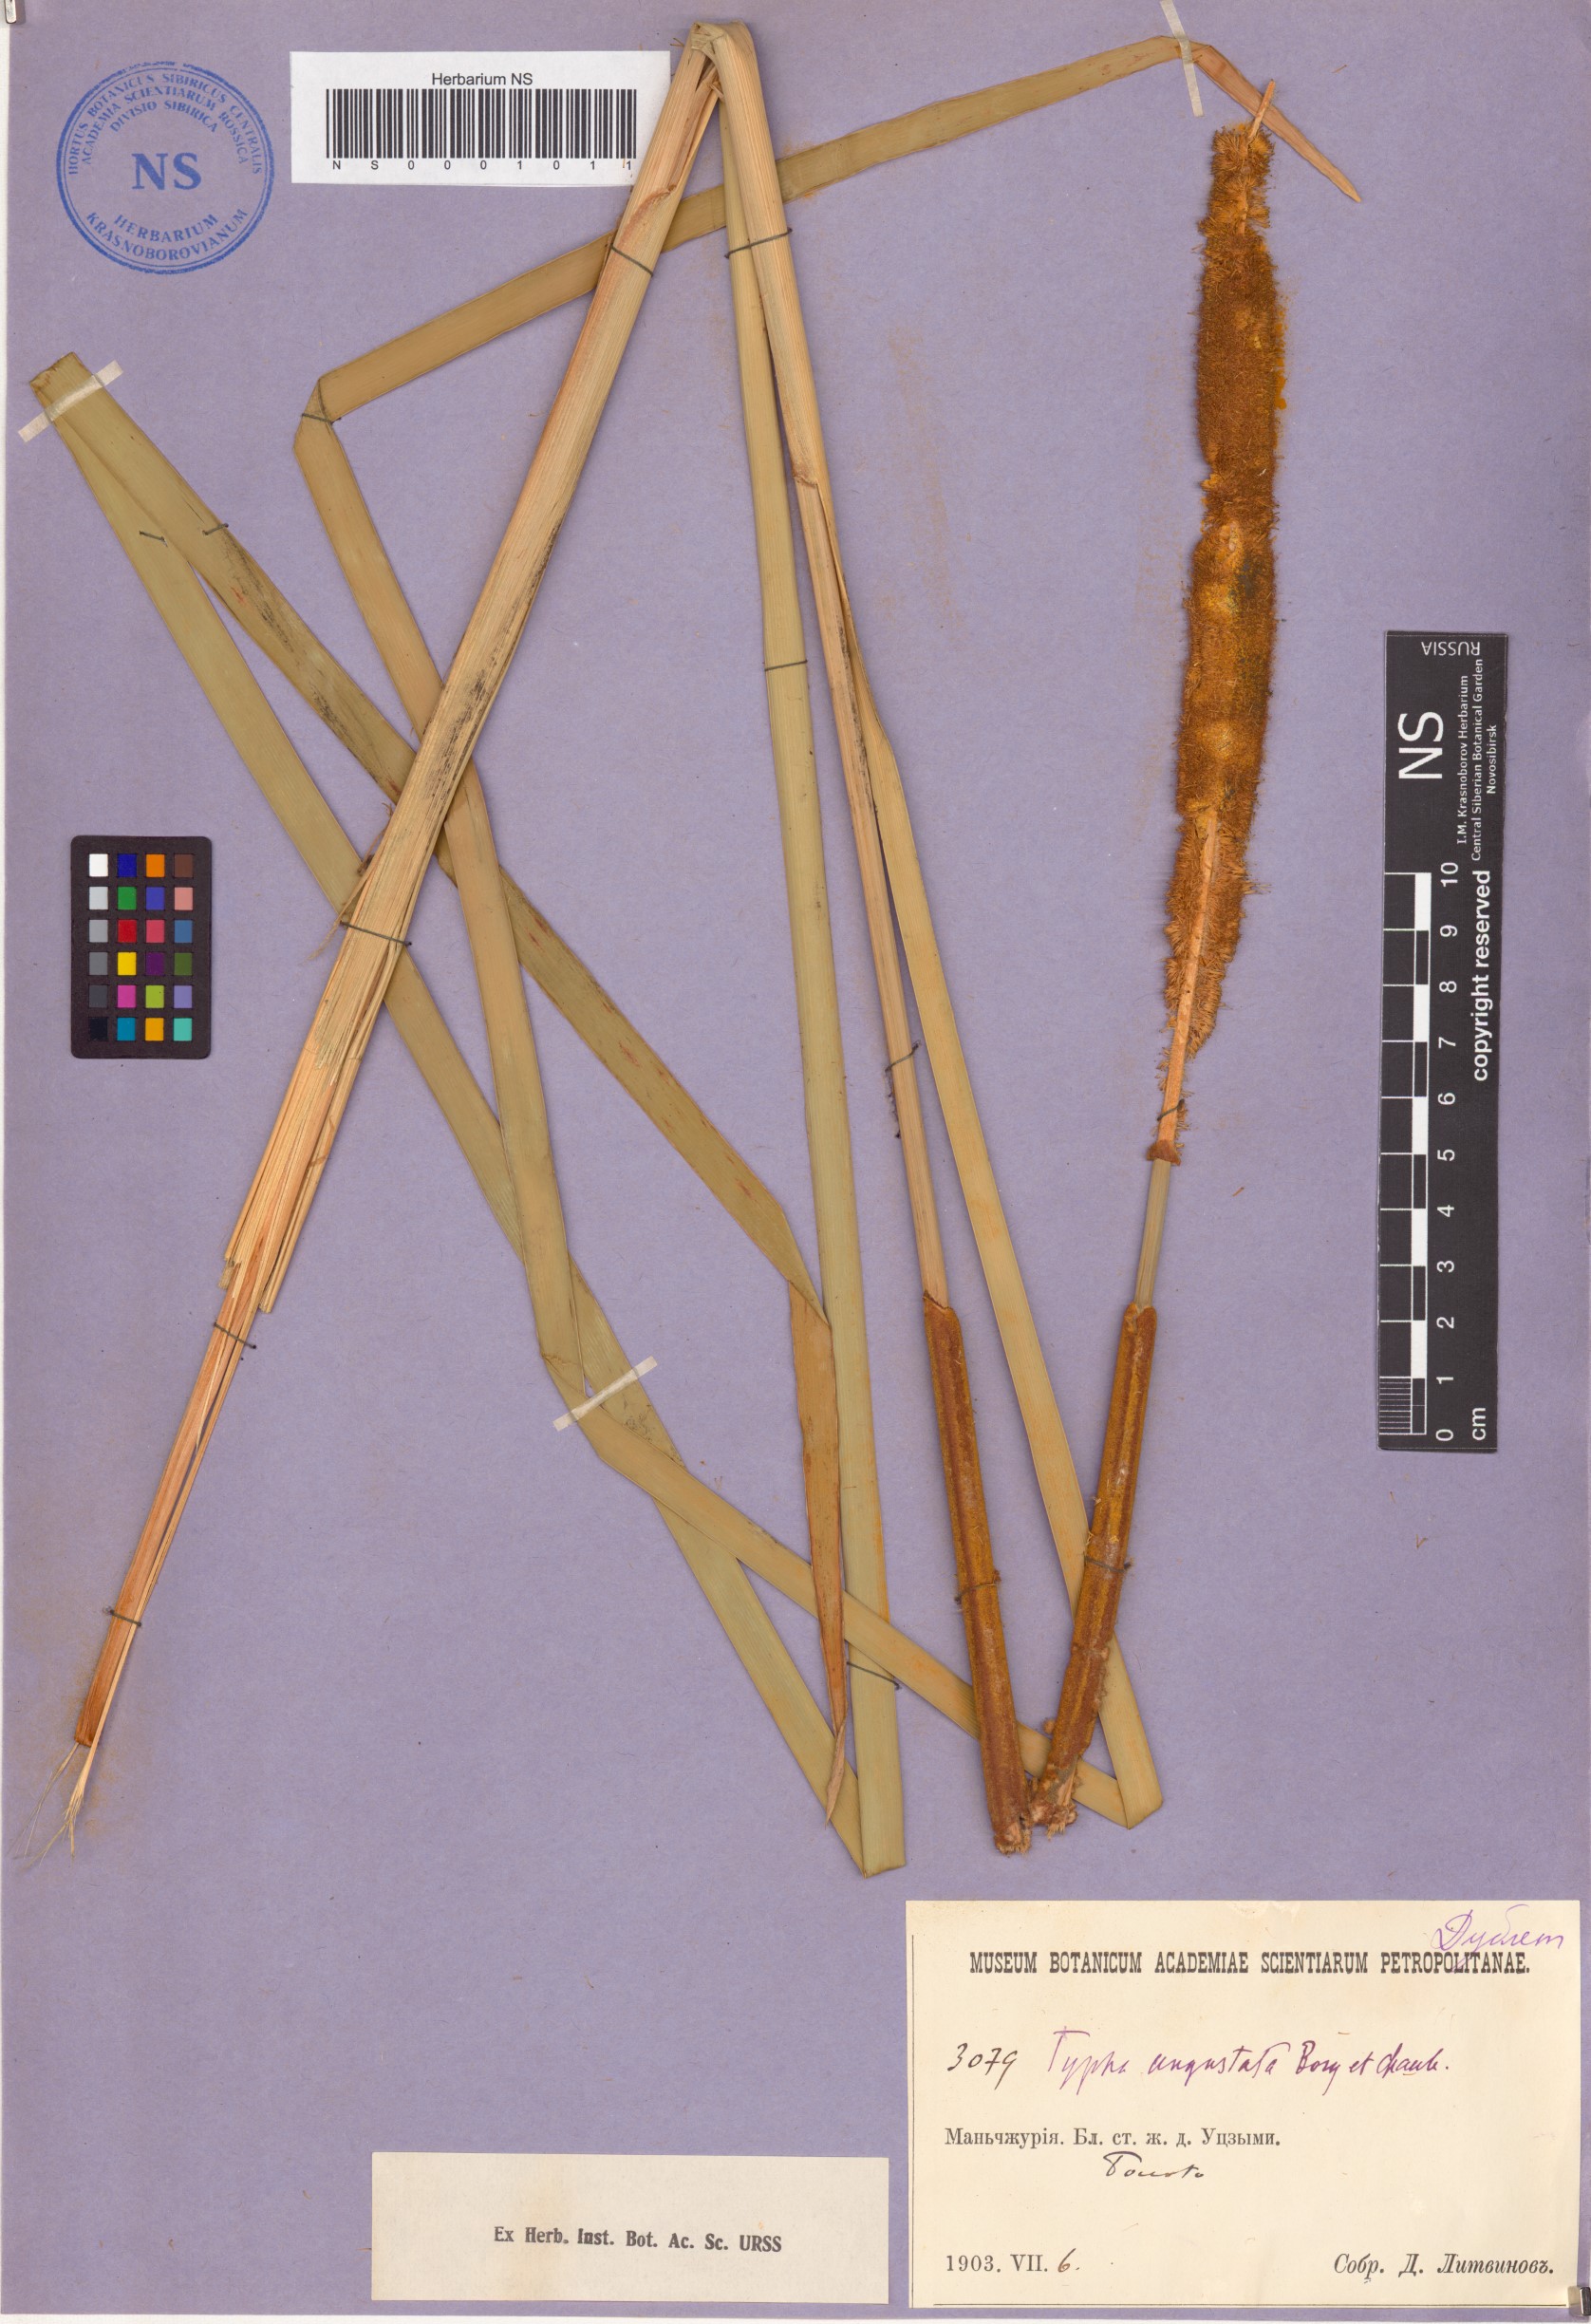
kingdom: Plantae
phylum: Tracheophyta
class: Liliopsida
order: Poales
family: Typhaceae
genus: Typha
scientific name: Typha domingensis
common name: Southern cattail
